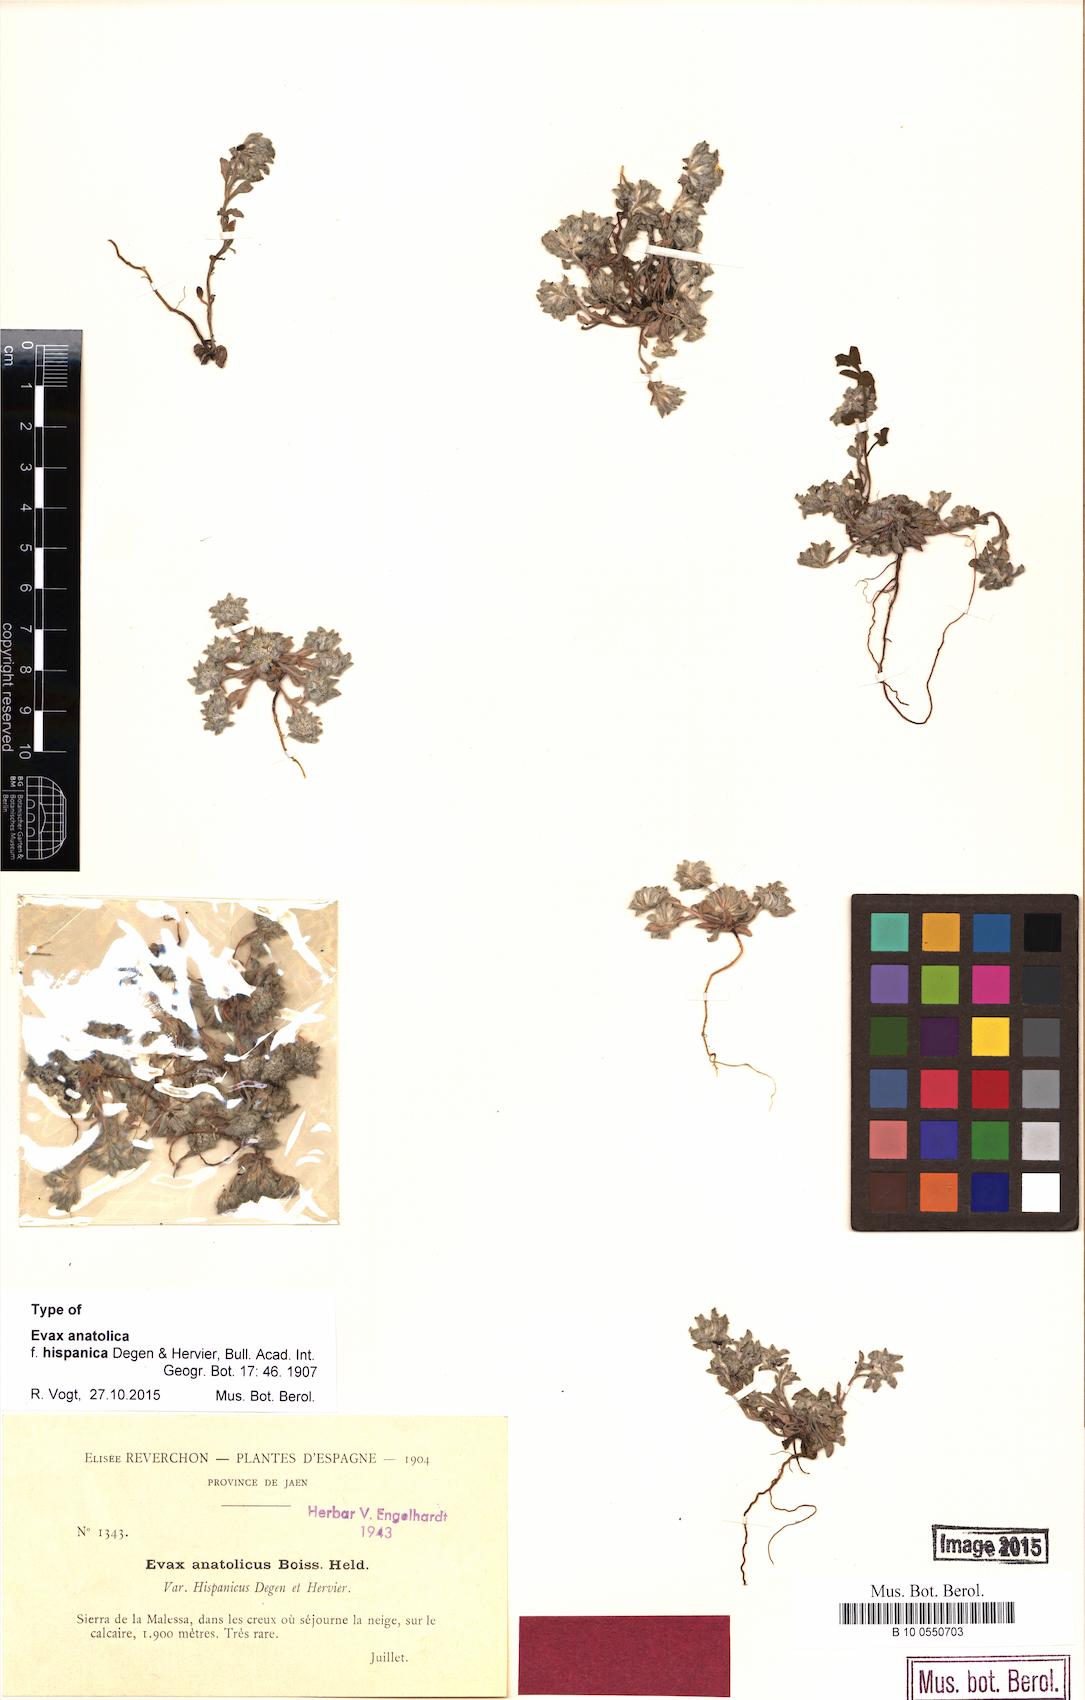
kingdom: Plantae
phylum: Tracheophyta
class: Magnoliopsida
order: Asterales
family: Asteraceae
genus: Filago
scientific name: Filago hispanica
